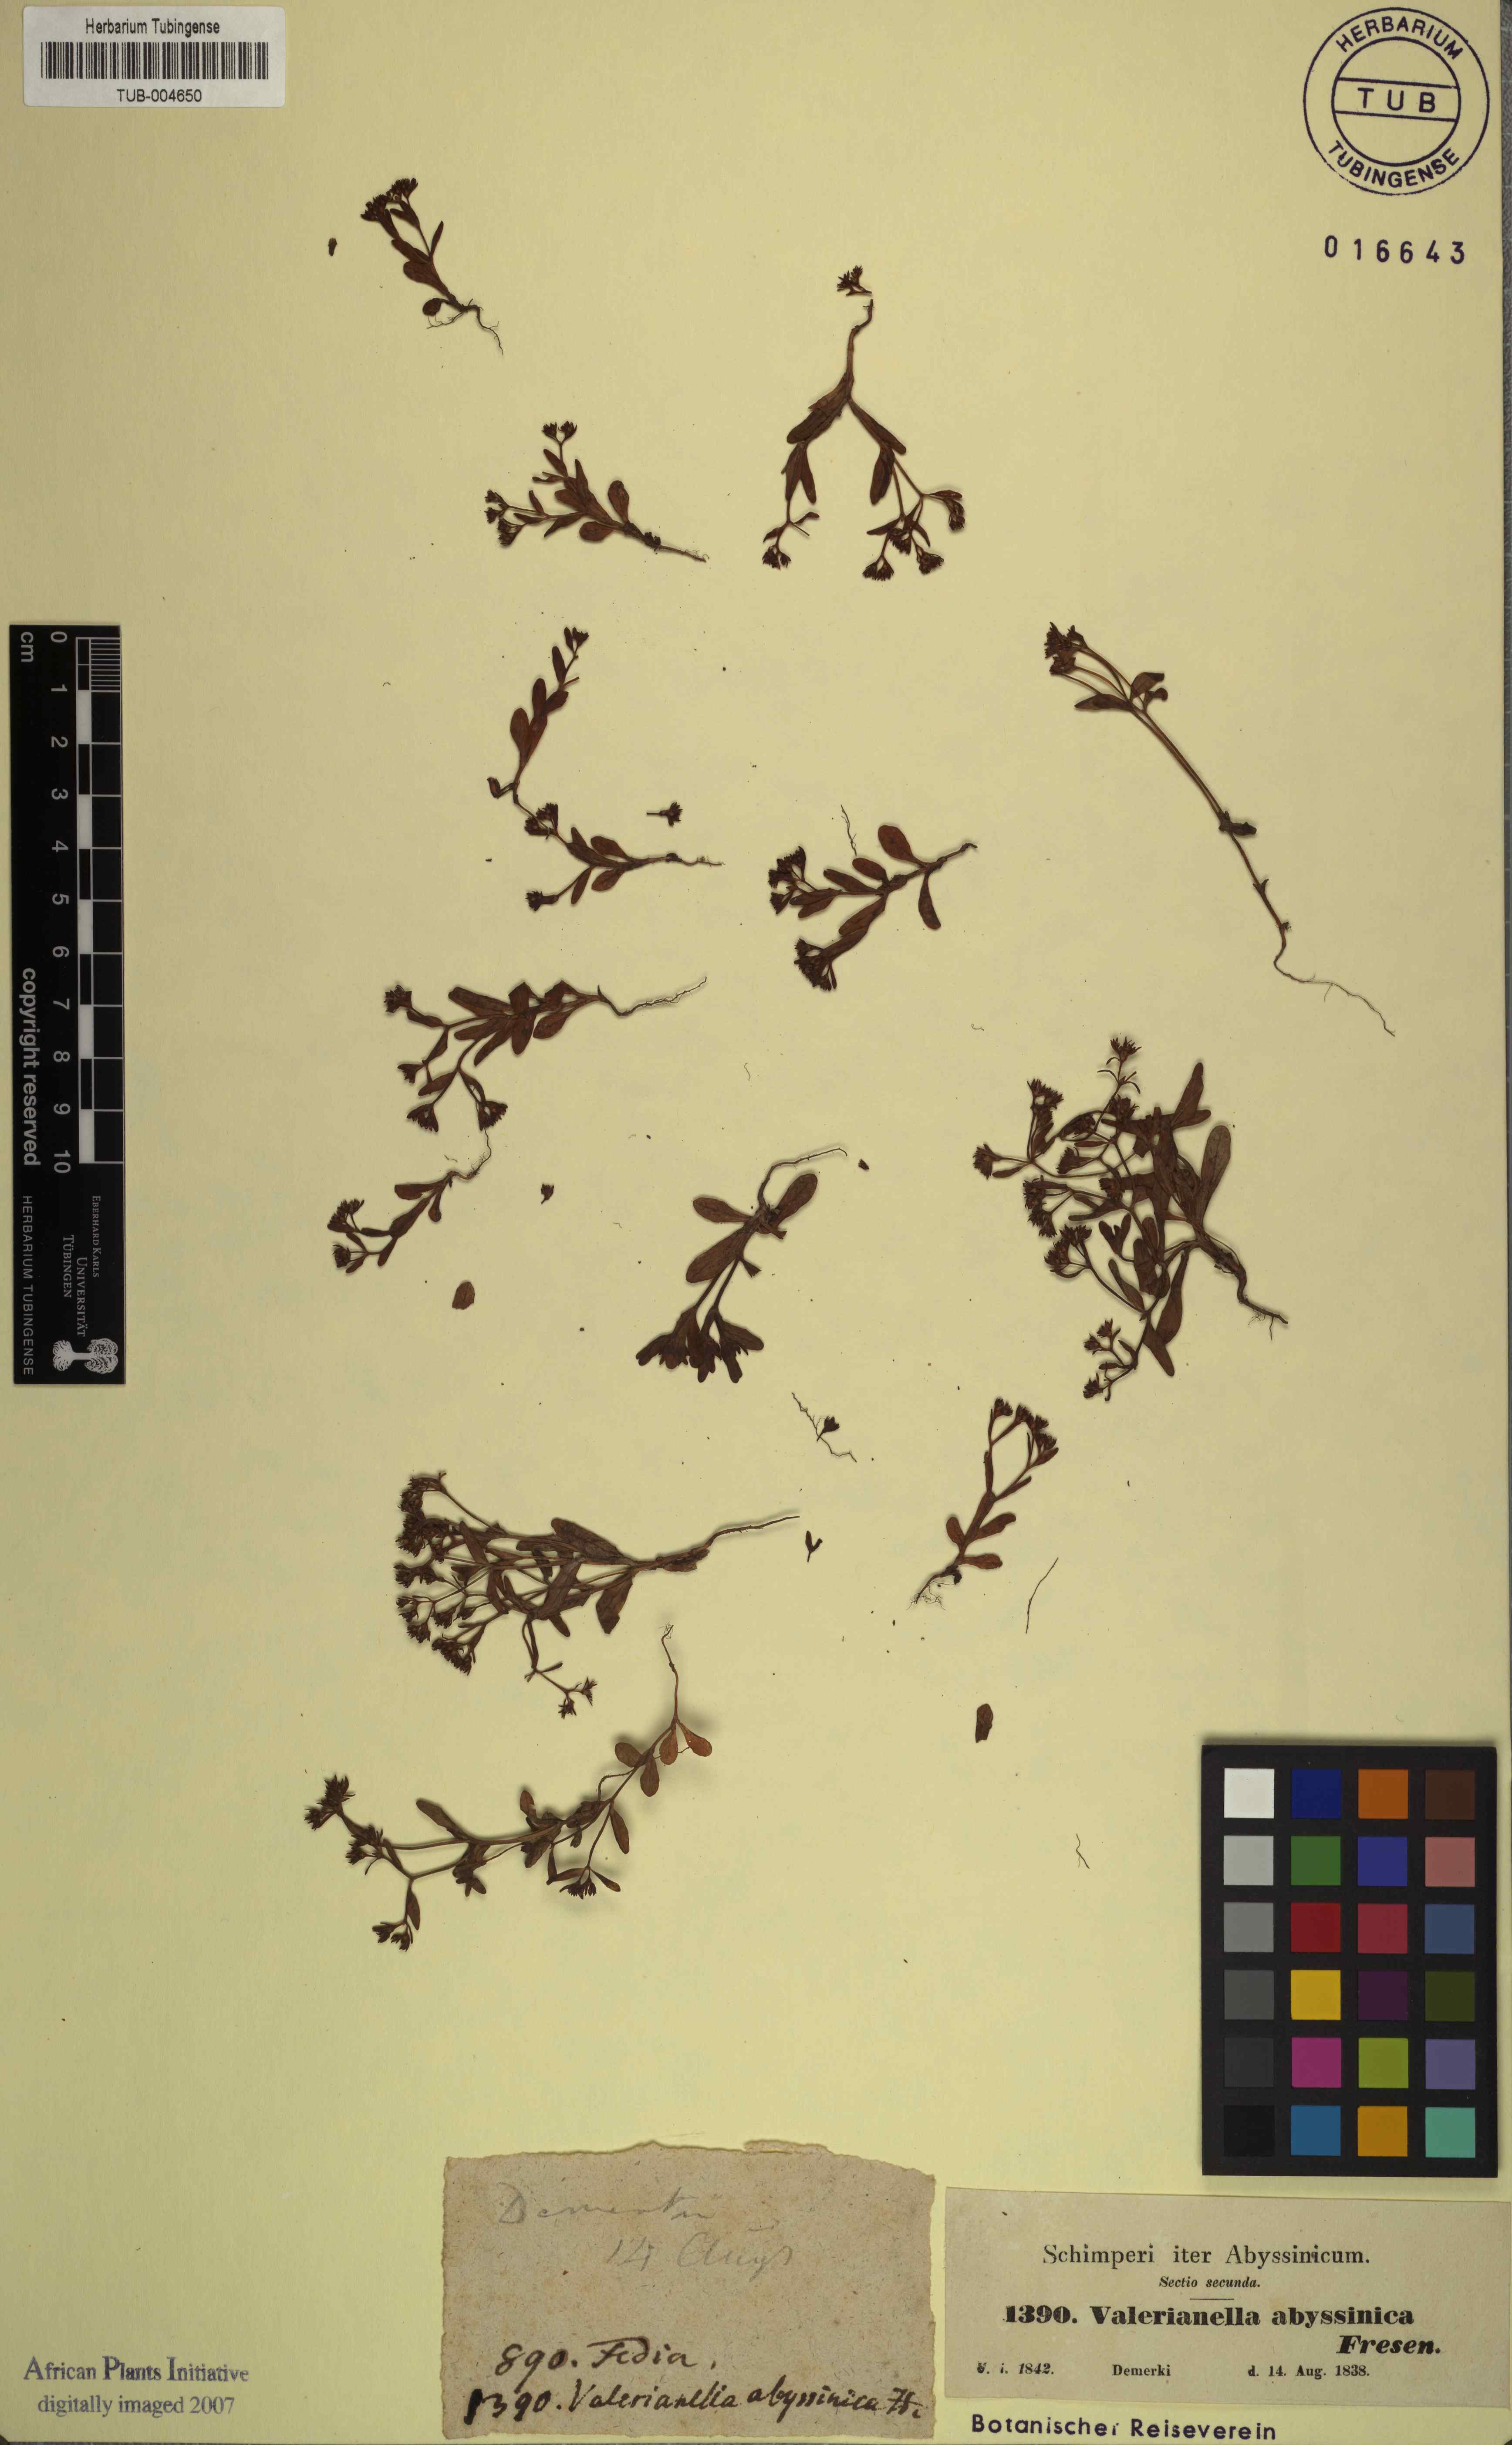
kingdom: Plantae
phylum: Tracheophyta
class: Magnoliopsida
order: Dipsacales
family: Caprifoliaceae
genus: Valerianella
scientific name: Valerianella dentata
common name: Narrow-fruited cornsalad
